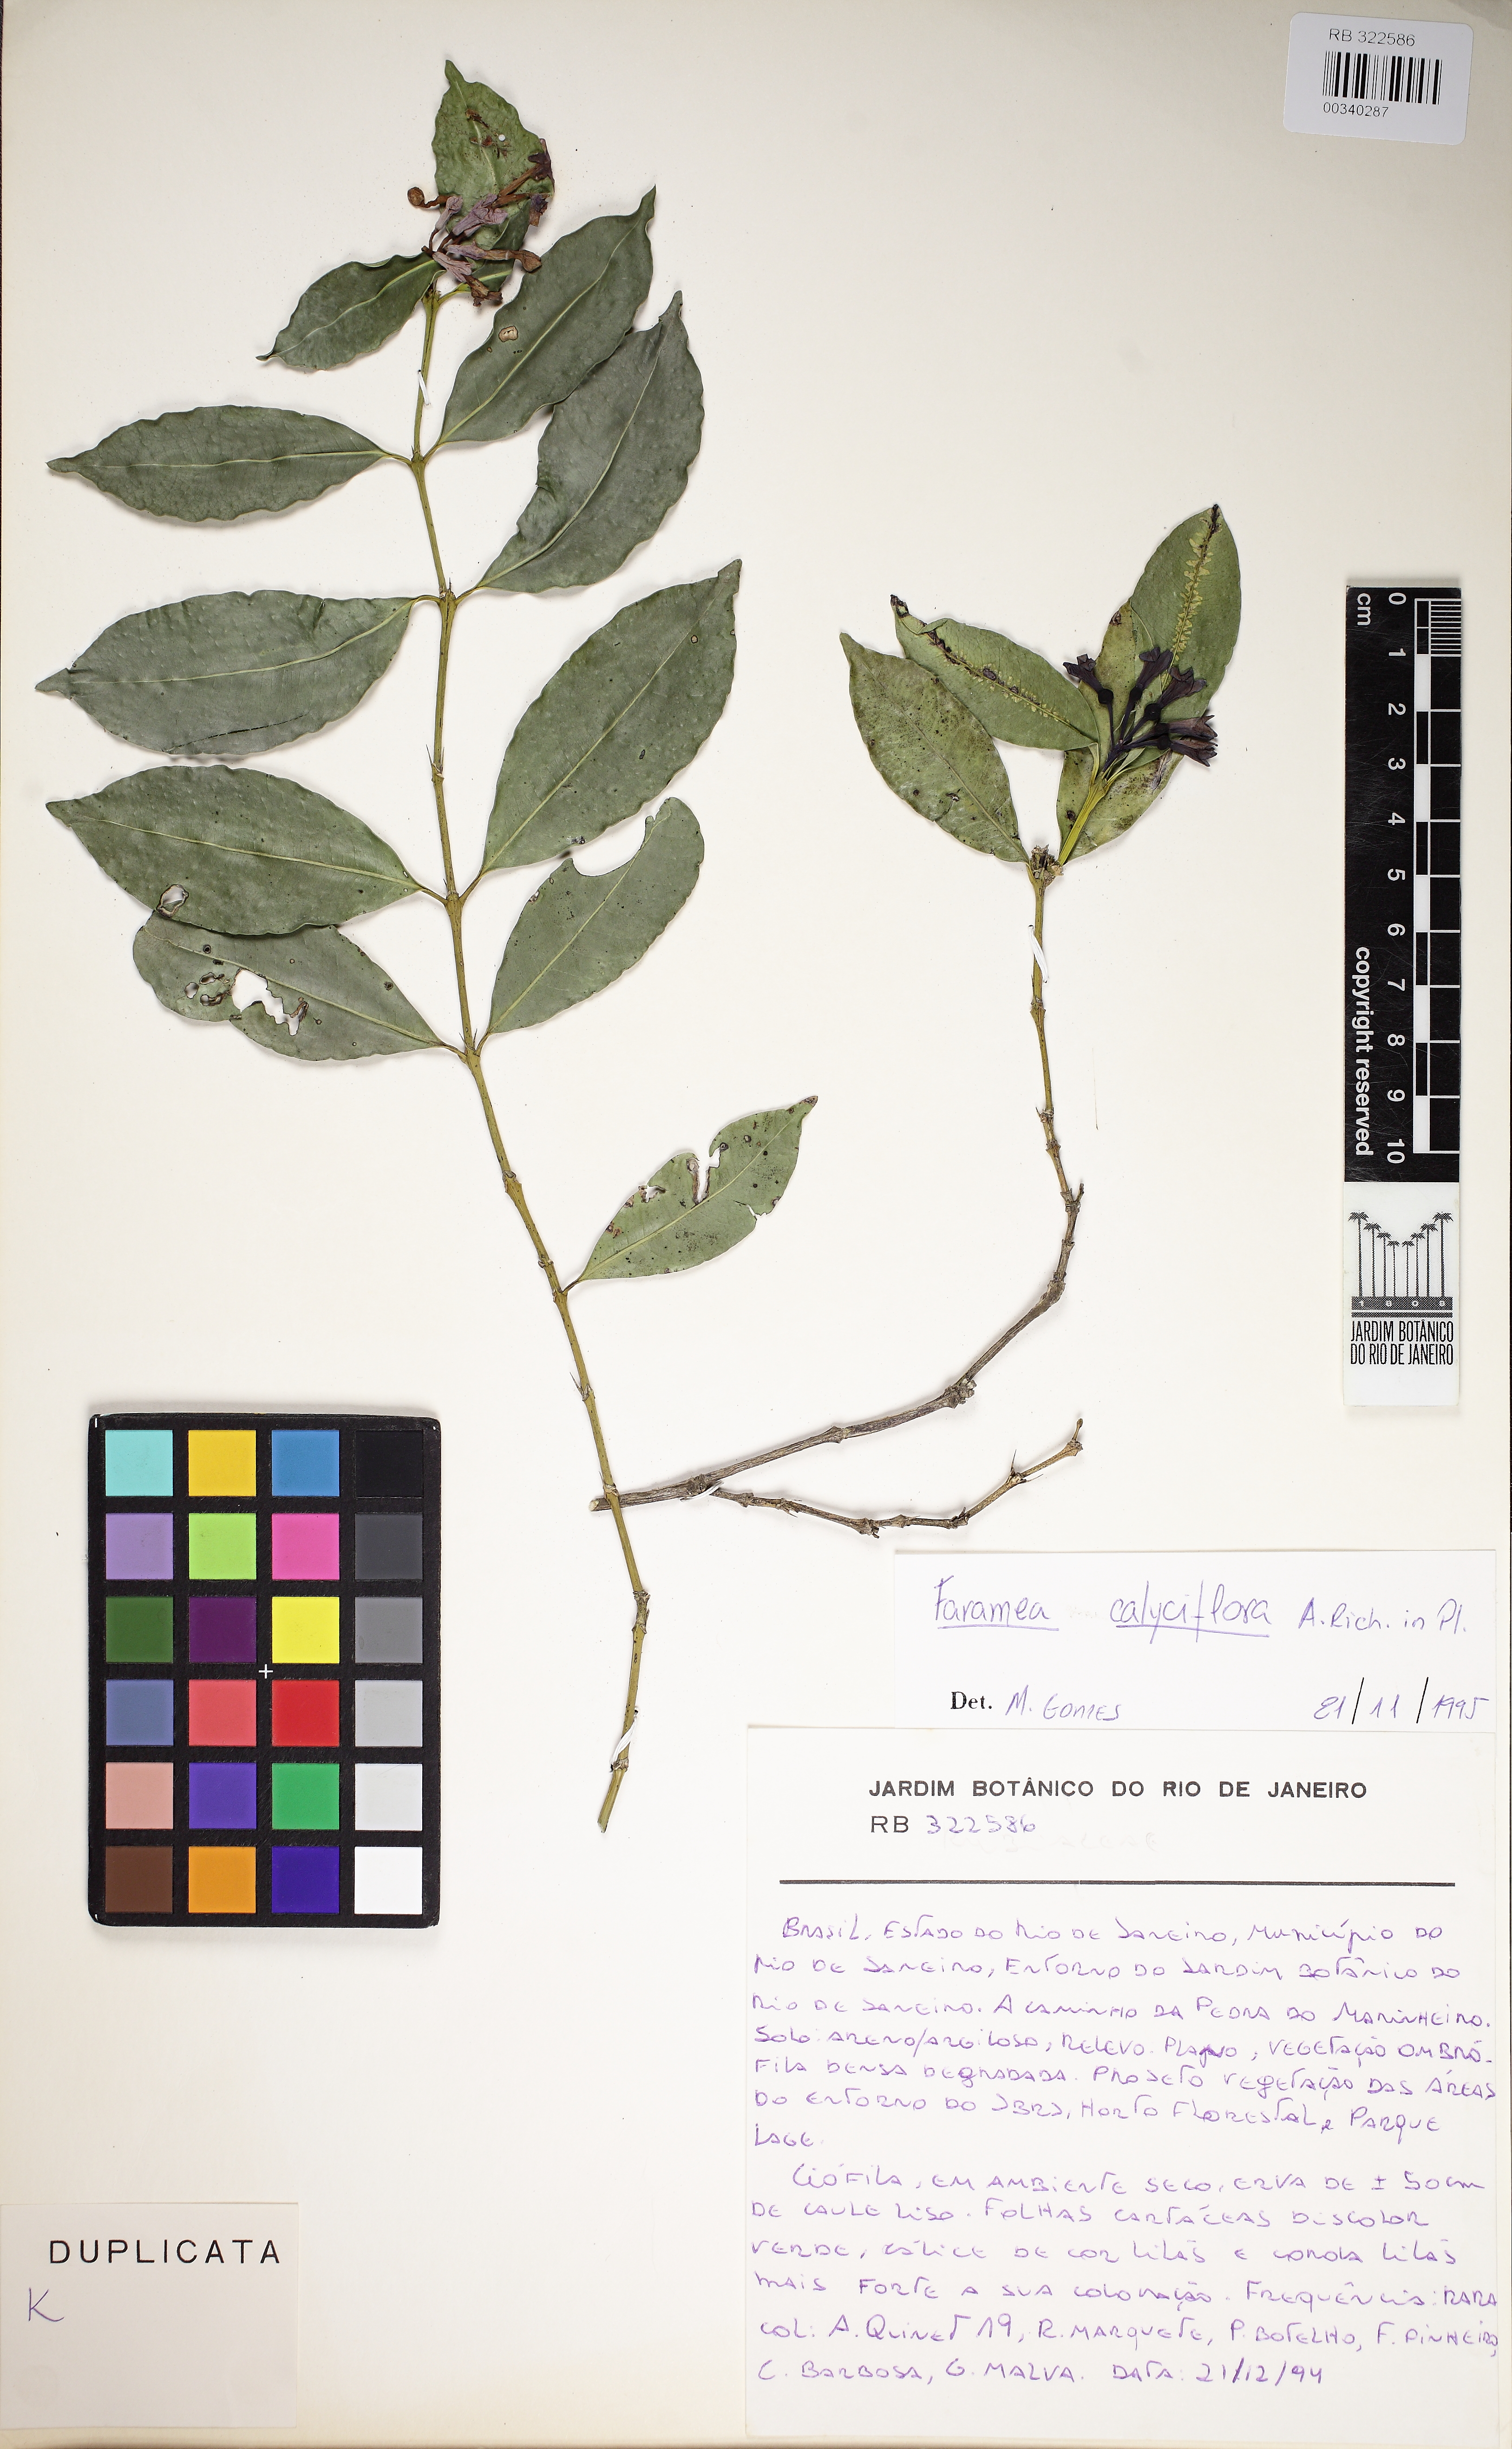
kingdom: Plantae
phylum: Tracheophyta
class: Magnoliopsida
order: Gentianales
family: Rubiaceae
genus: Faramea
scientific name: Faramea calyciflora
